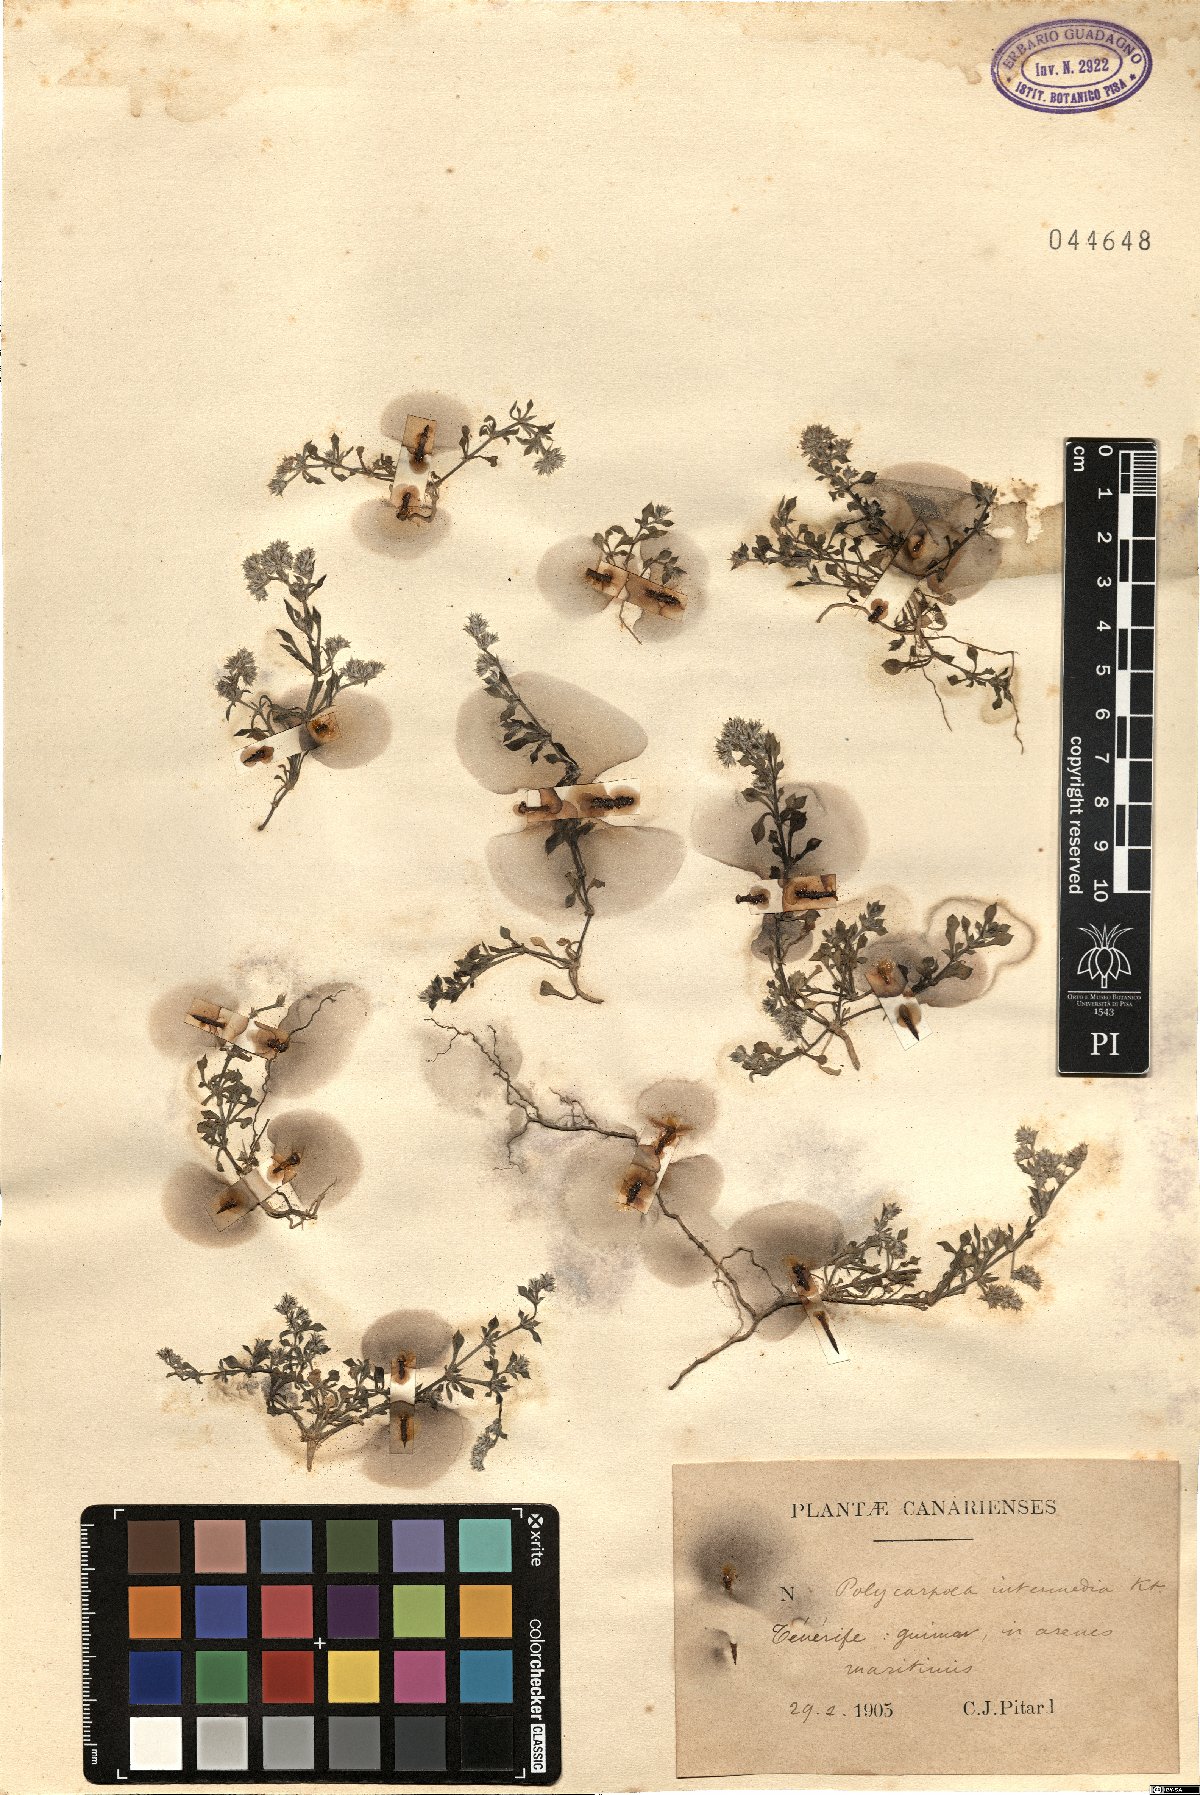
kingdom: Plantae
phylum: Tracheophyta
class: Magnoliopsida
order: Caryophyllales
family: Caryophyllaceae
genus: Polycarpaea
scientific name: Polycarpaea
